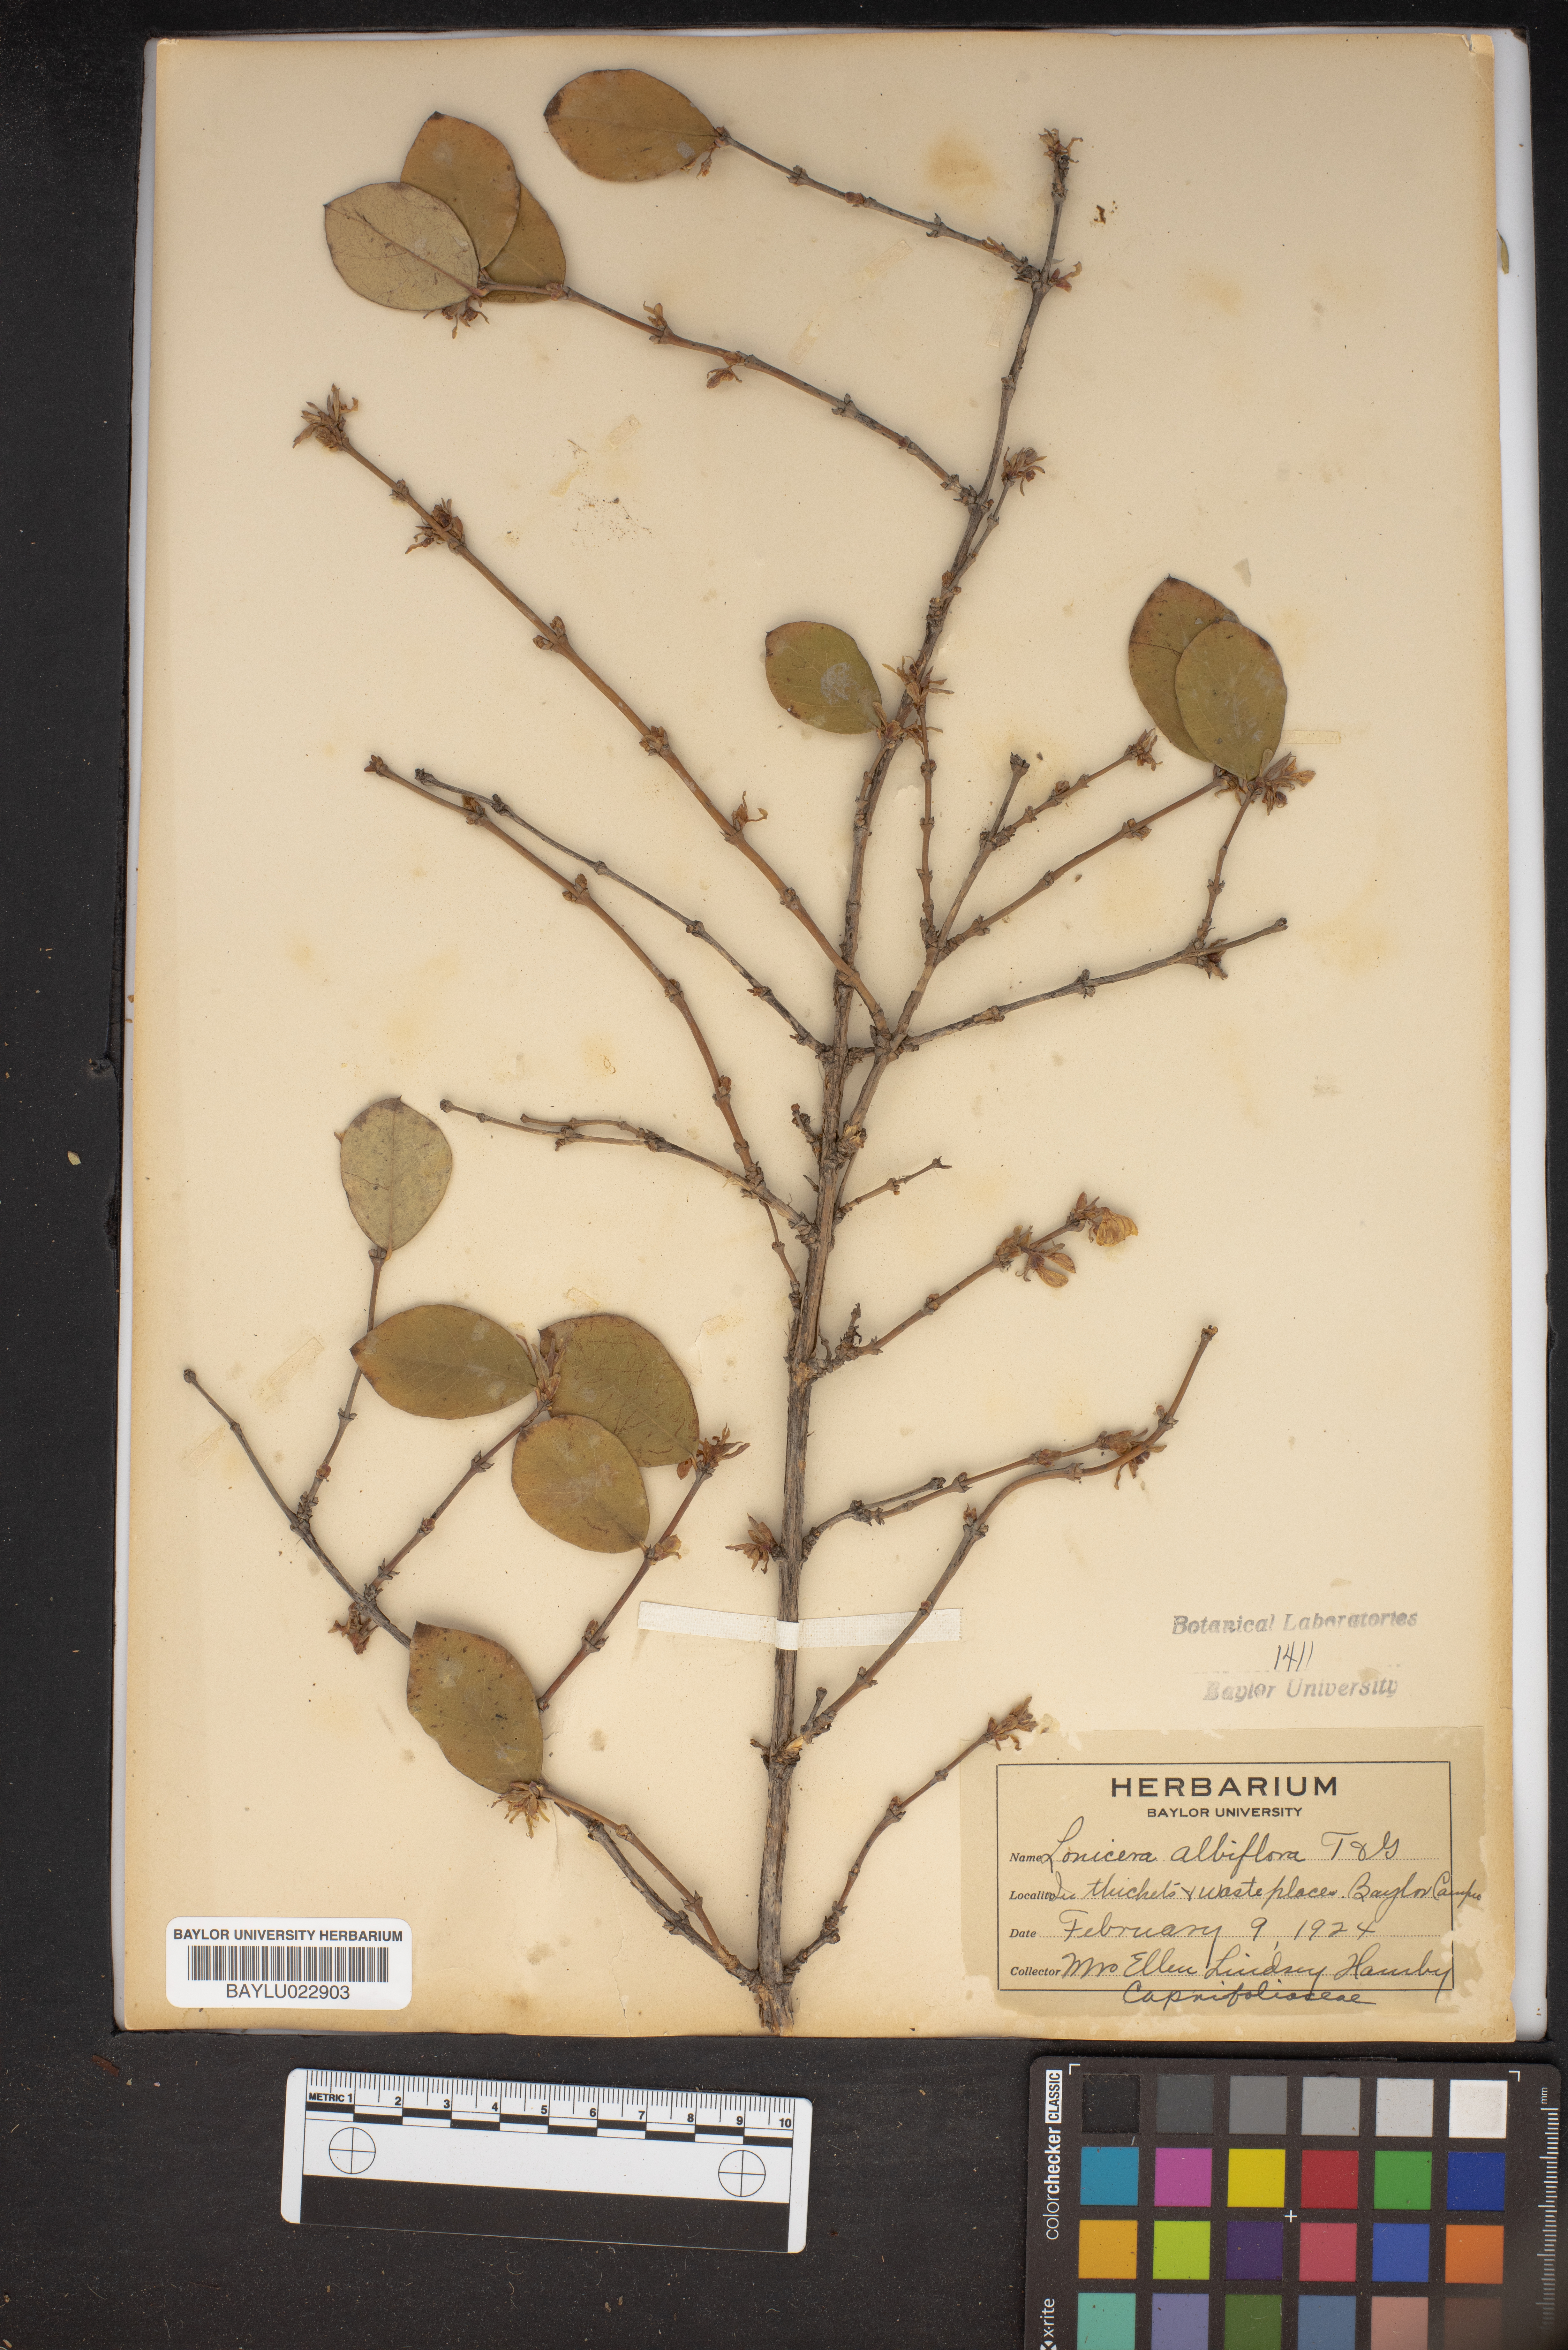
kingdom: Plantae
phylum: Tracheophyta
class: Magnoliopsida
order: Dipsacales
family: Caprifoliaceae
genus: Lonicera
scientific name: Lonicera albiflora
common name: White honeysuckle
